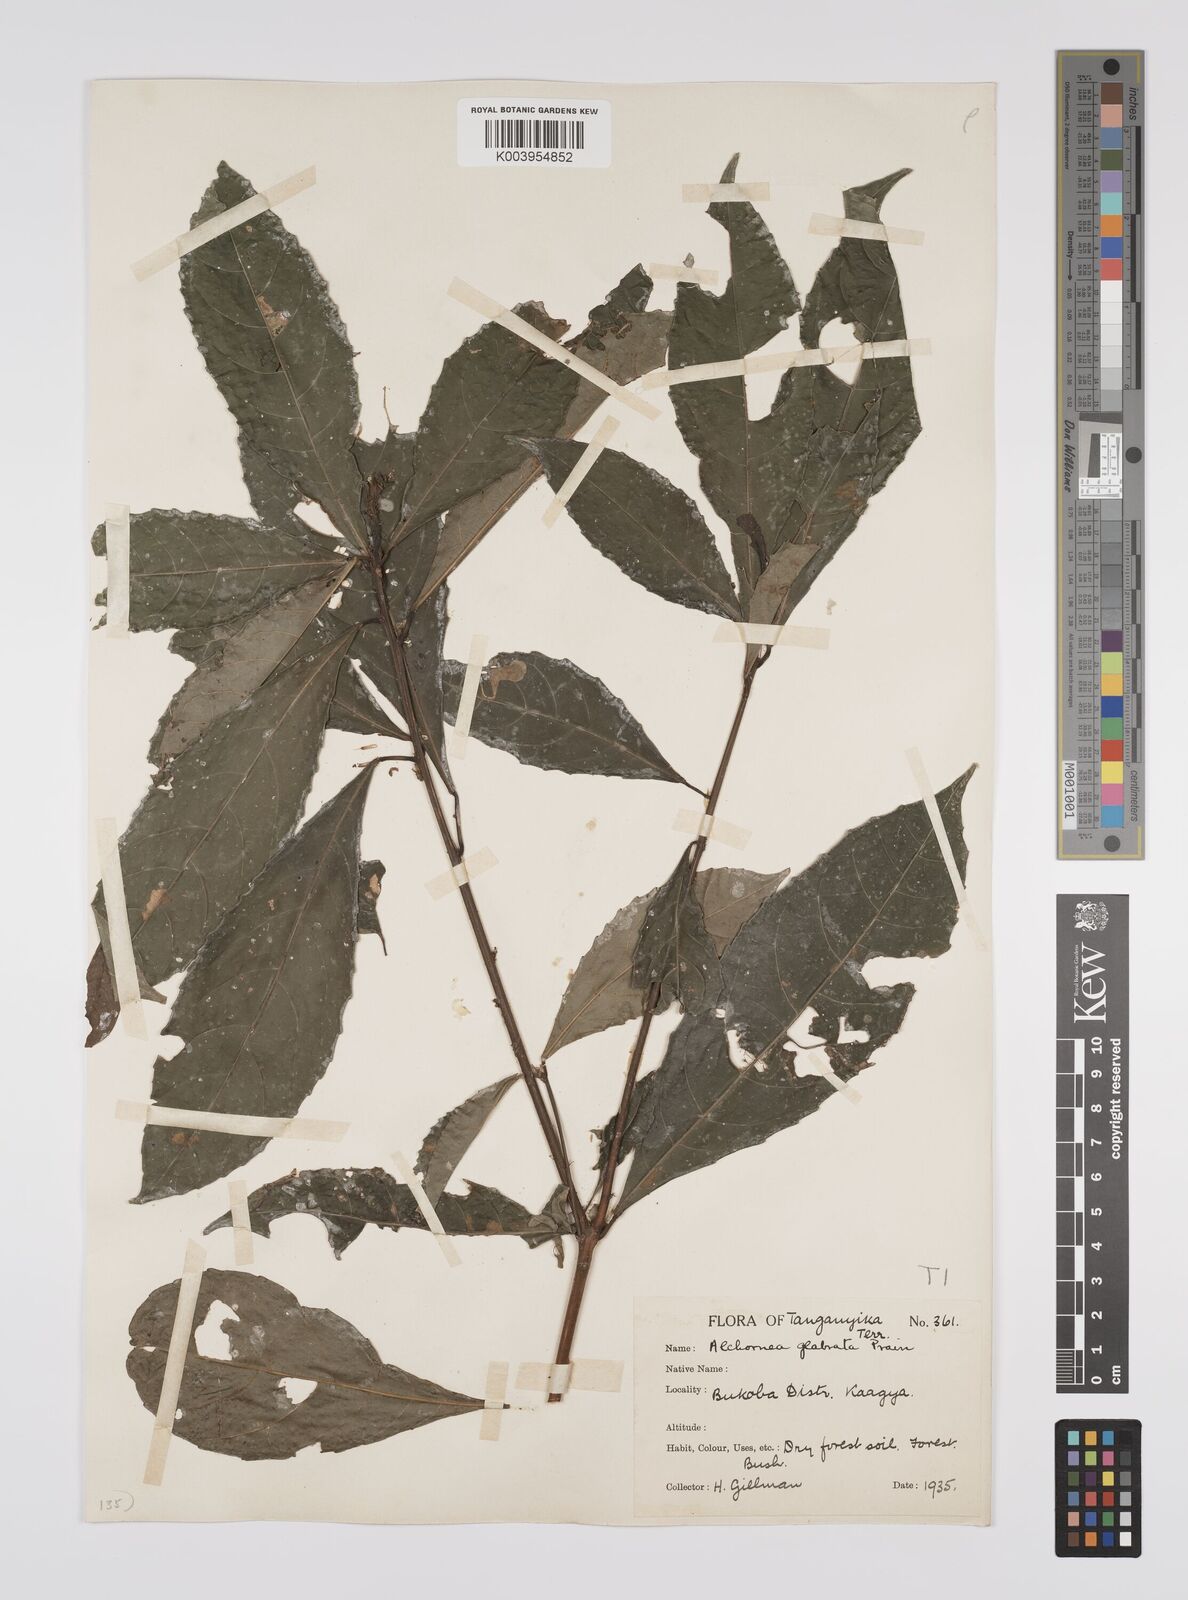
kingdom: Plantae
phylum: Tracheophyta
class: Magnoliopsida
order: Malpighiales
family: Euphorbiaceae
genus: Alchornea
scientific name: Alchornea hirtella
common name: Forest bead-string
